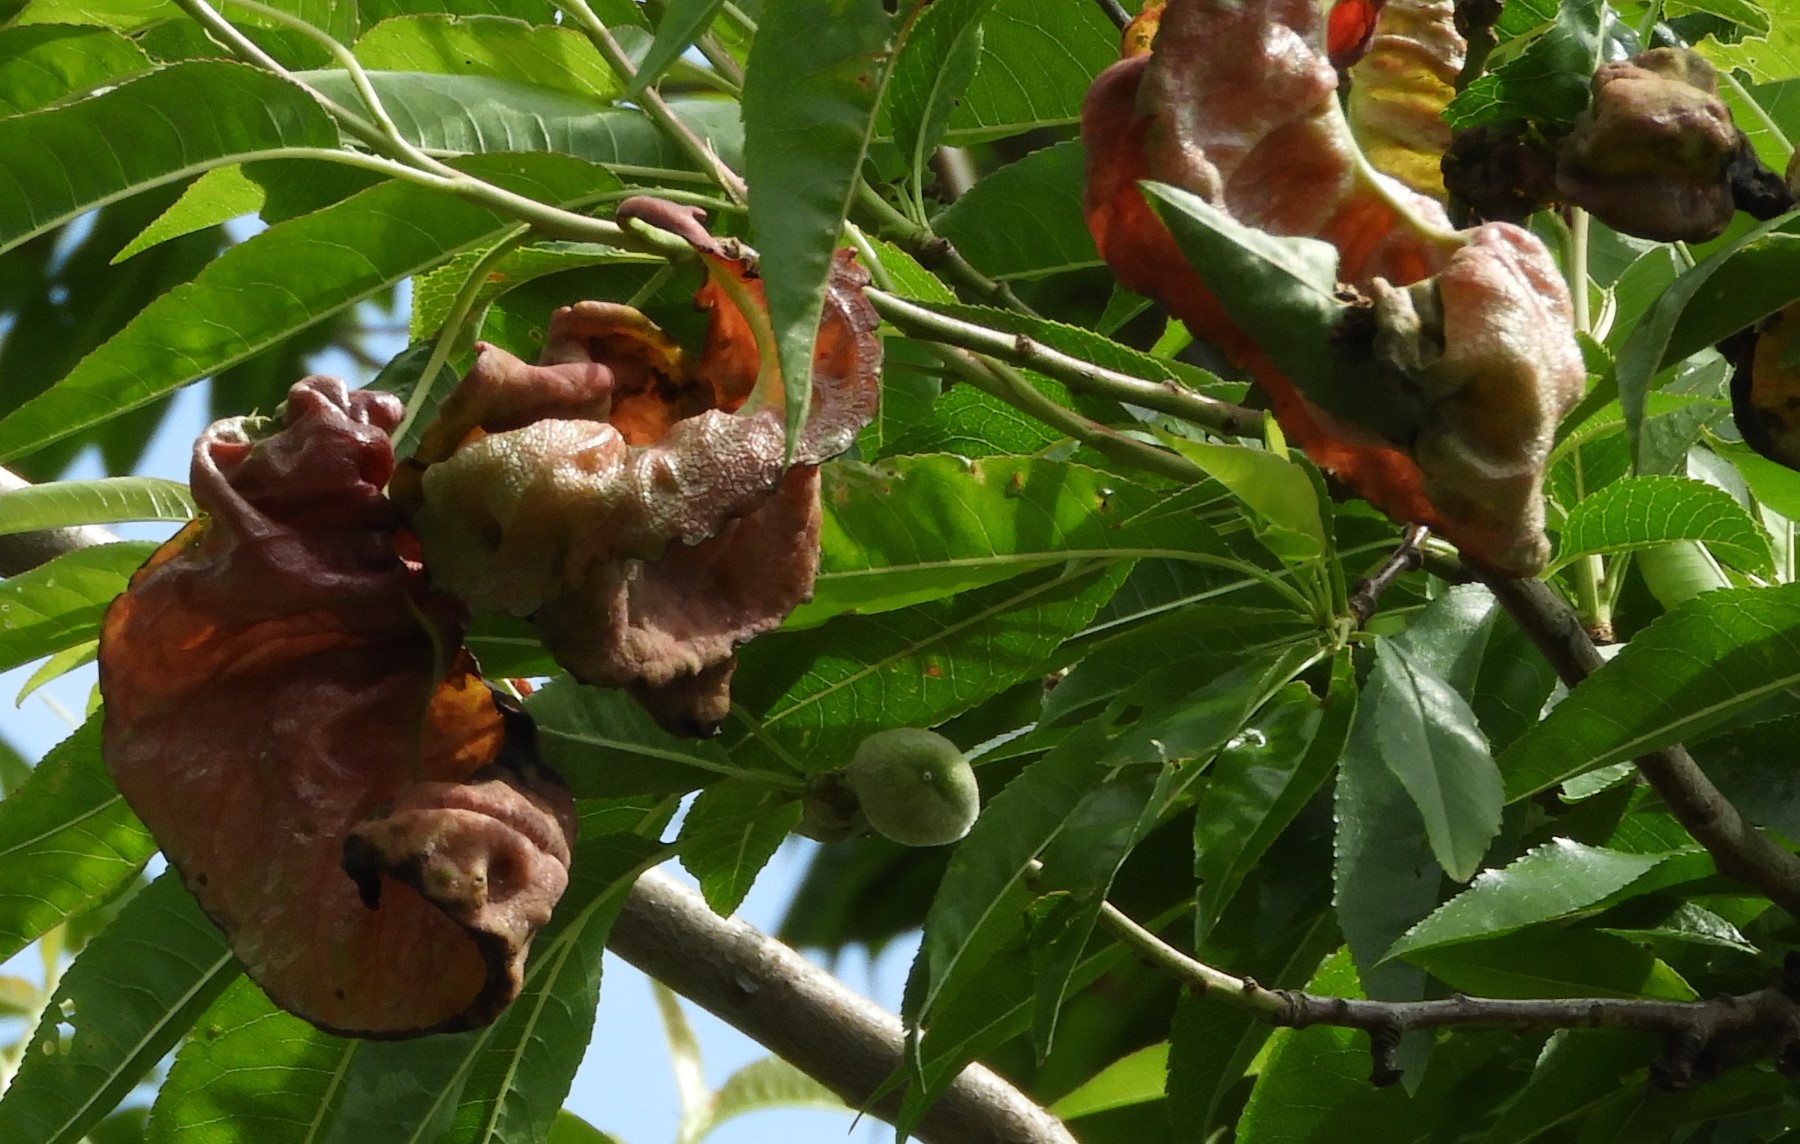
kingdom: Fungi
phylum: Ascomycota
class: Taphrinomycetes
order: Taphrinales
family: Taphrinaceae
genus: Taphrina
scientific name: Taphrina deformans
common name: Peach leaf curl
